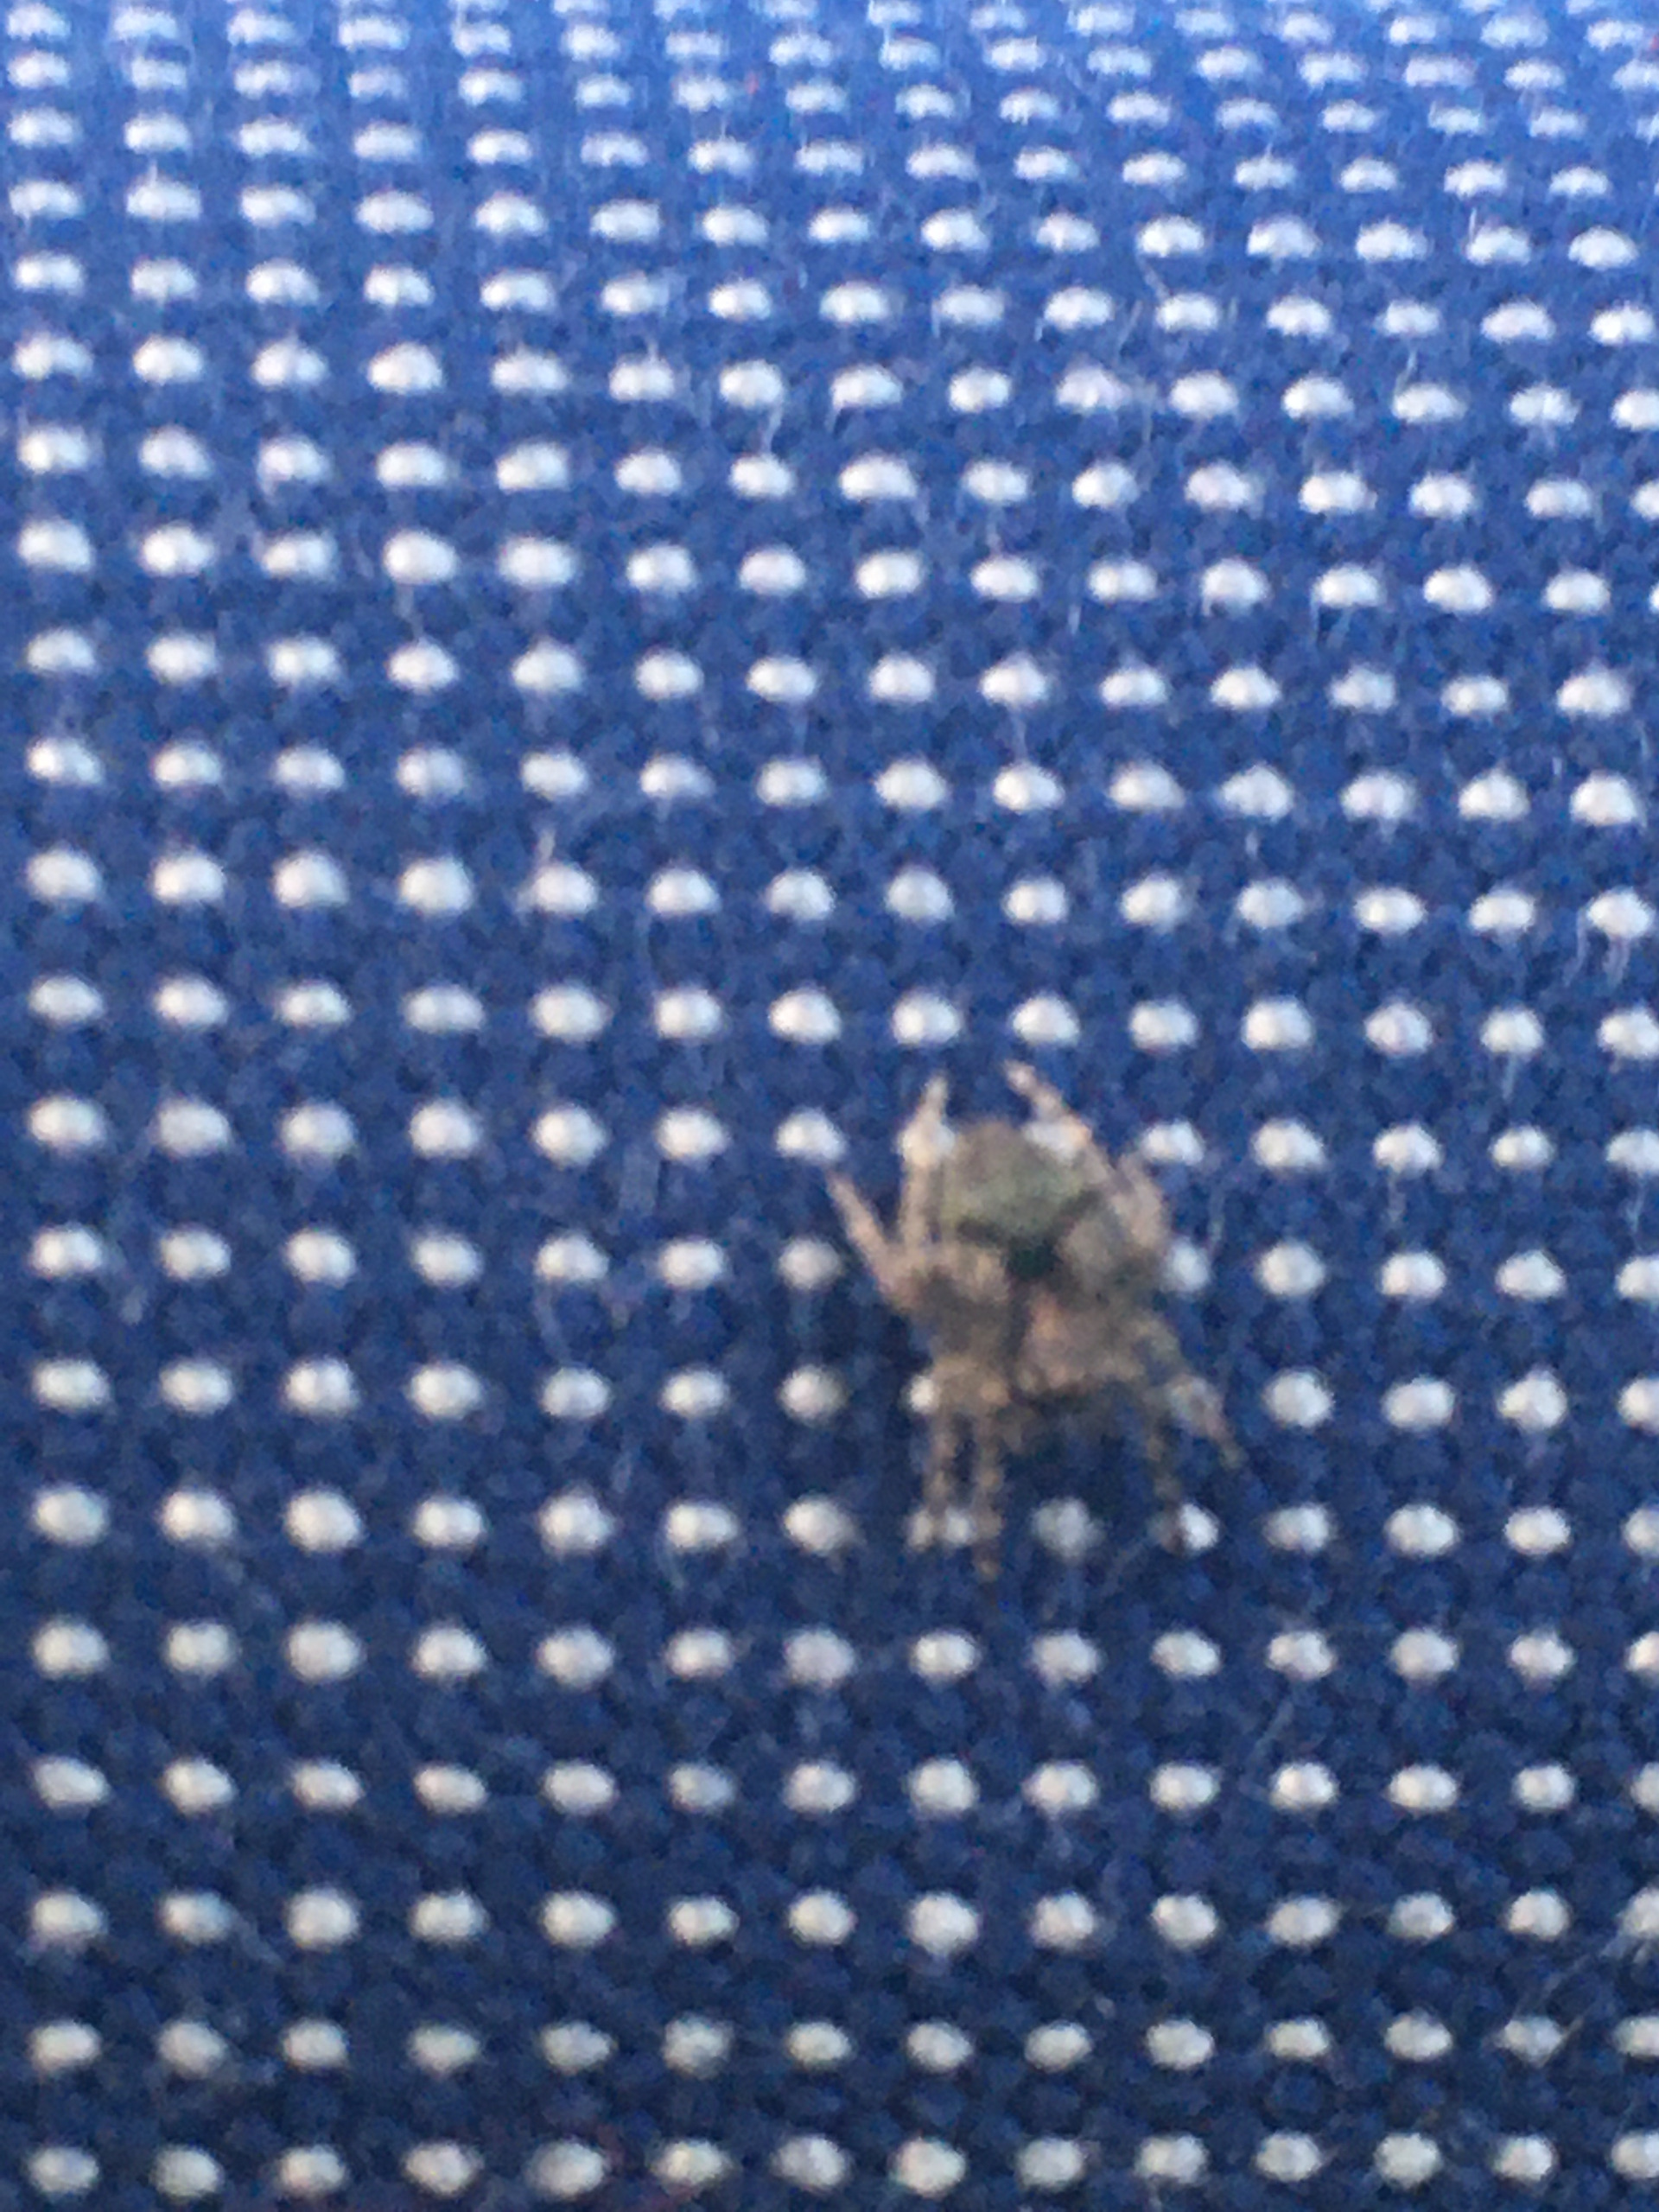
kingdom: Animalia
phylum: Arthropoda
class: Arachnida
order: Araneae
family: Araneidae
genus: Gibbaranea
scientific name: Gibbaranea gibbosa
